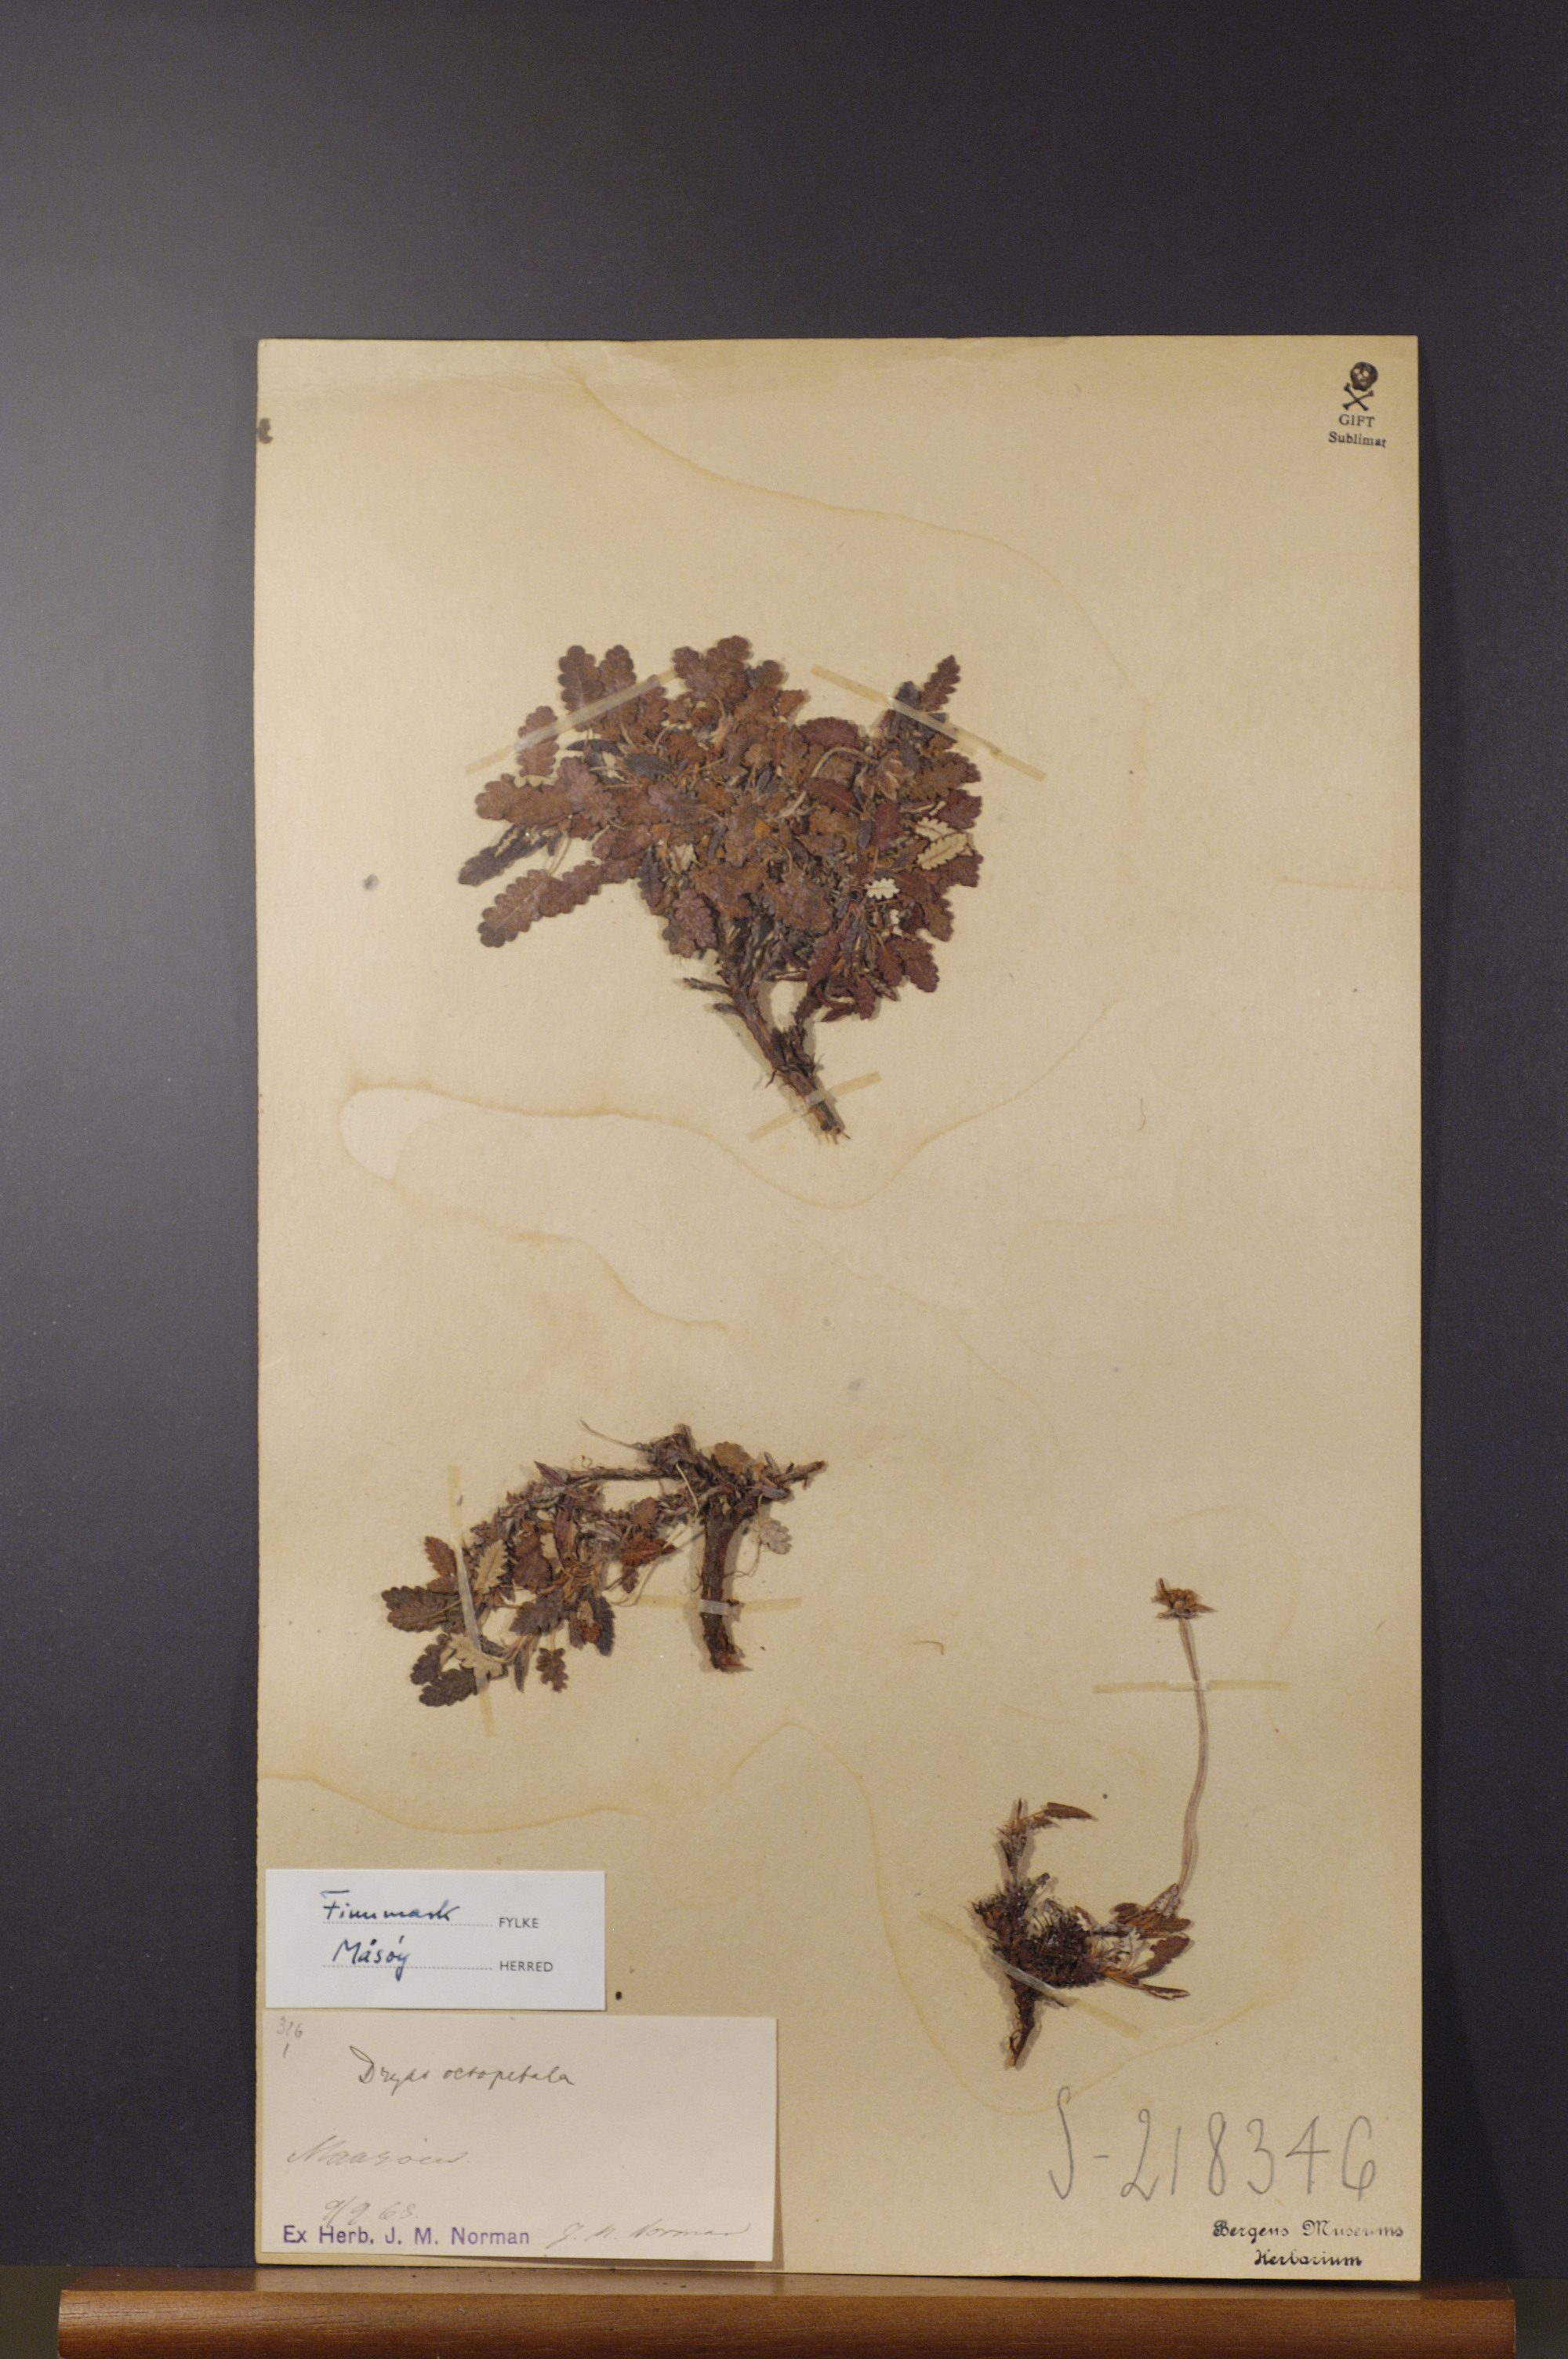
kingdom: Plantae
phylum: Tracheophyta
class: Magnoliopsida
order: Rosales
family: Rosaceae
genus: Dryas
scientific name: Dryas octopetala
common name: Eight-petal mountain-avens
